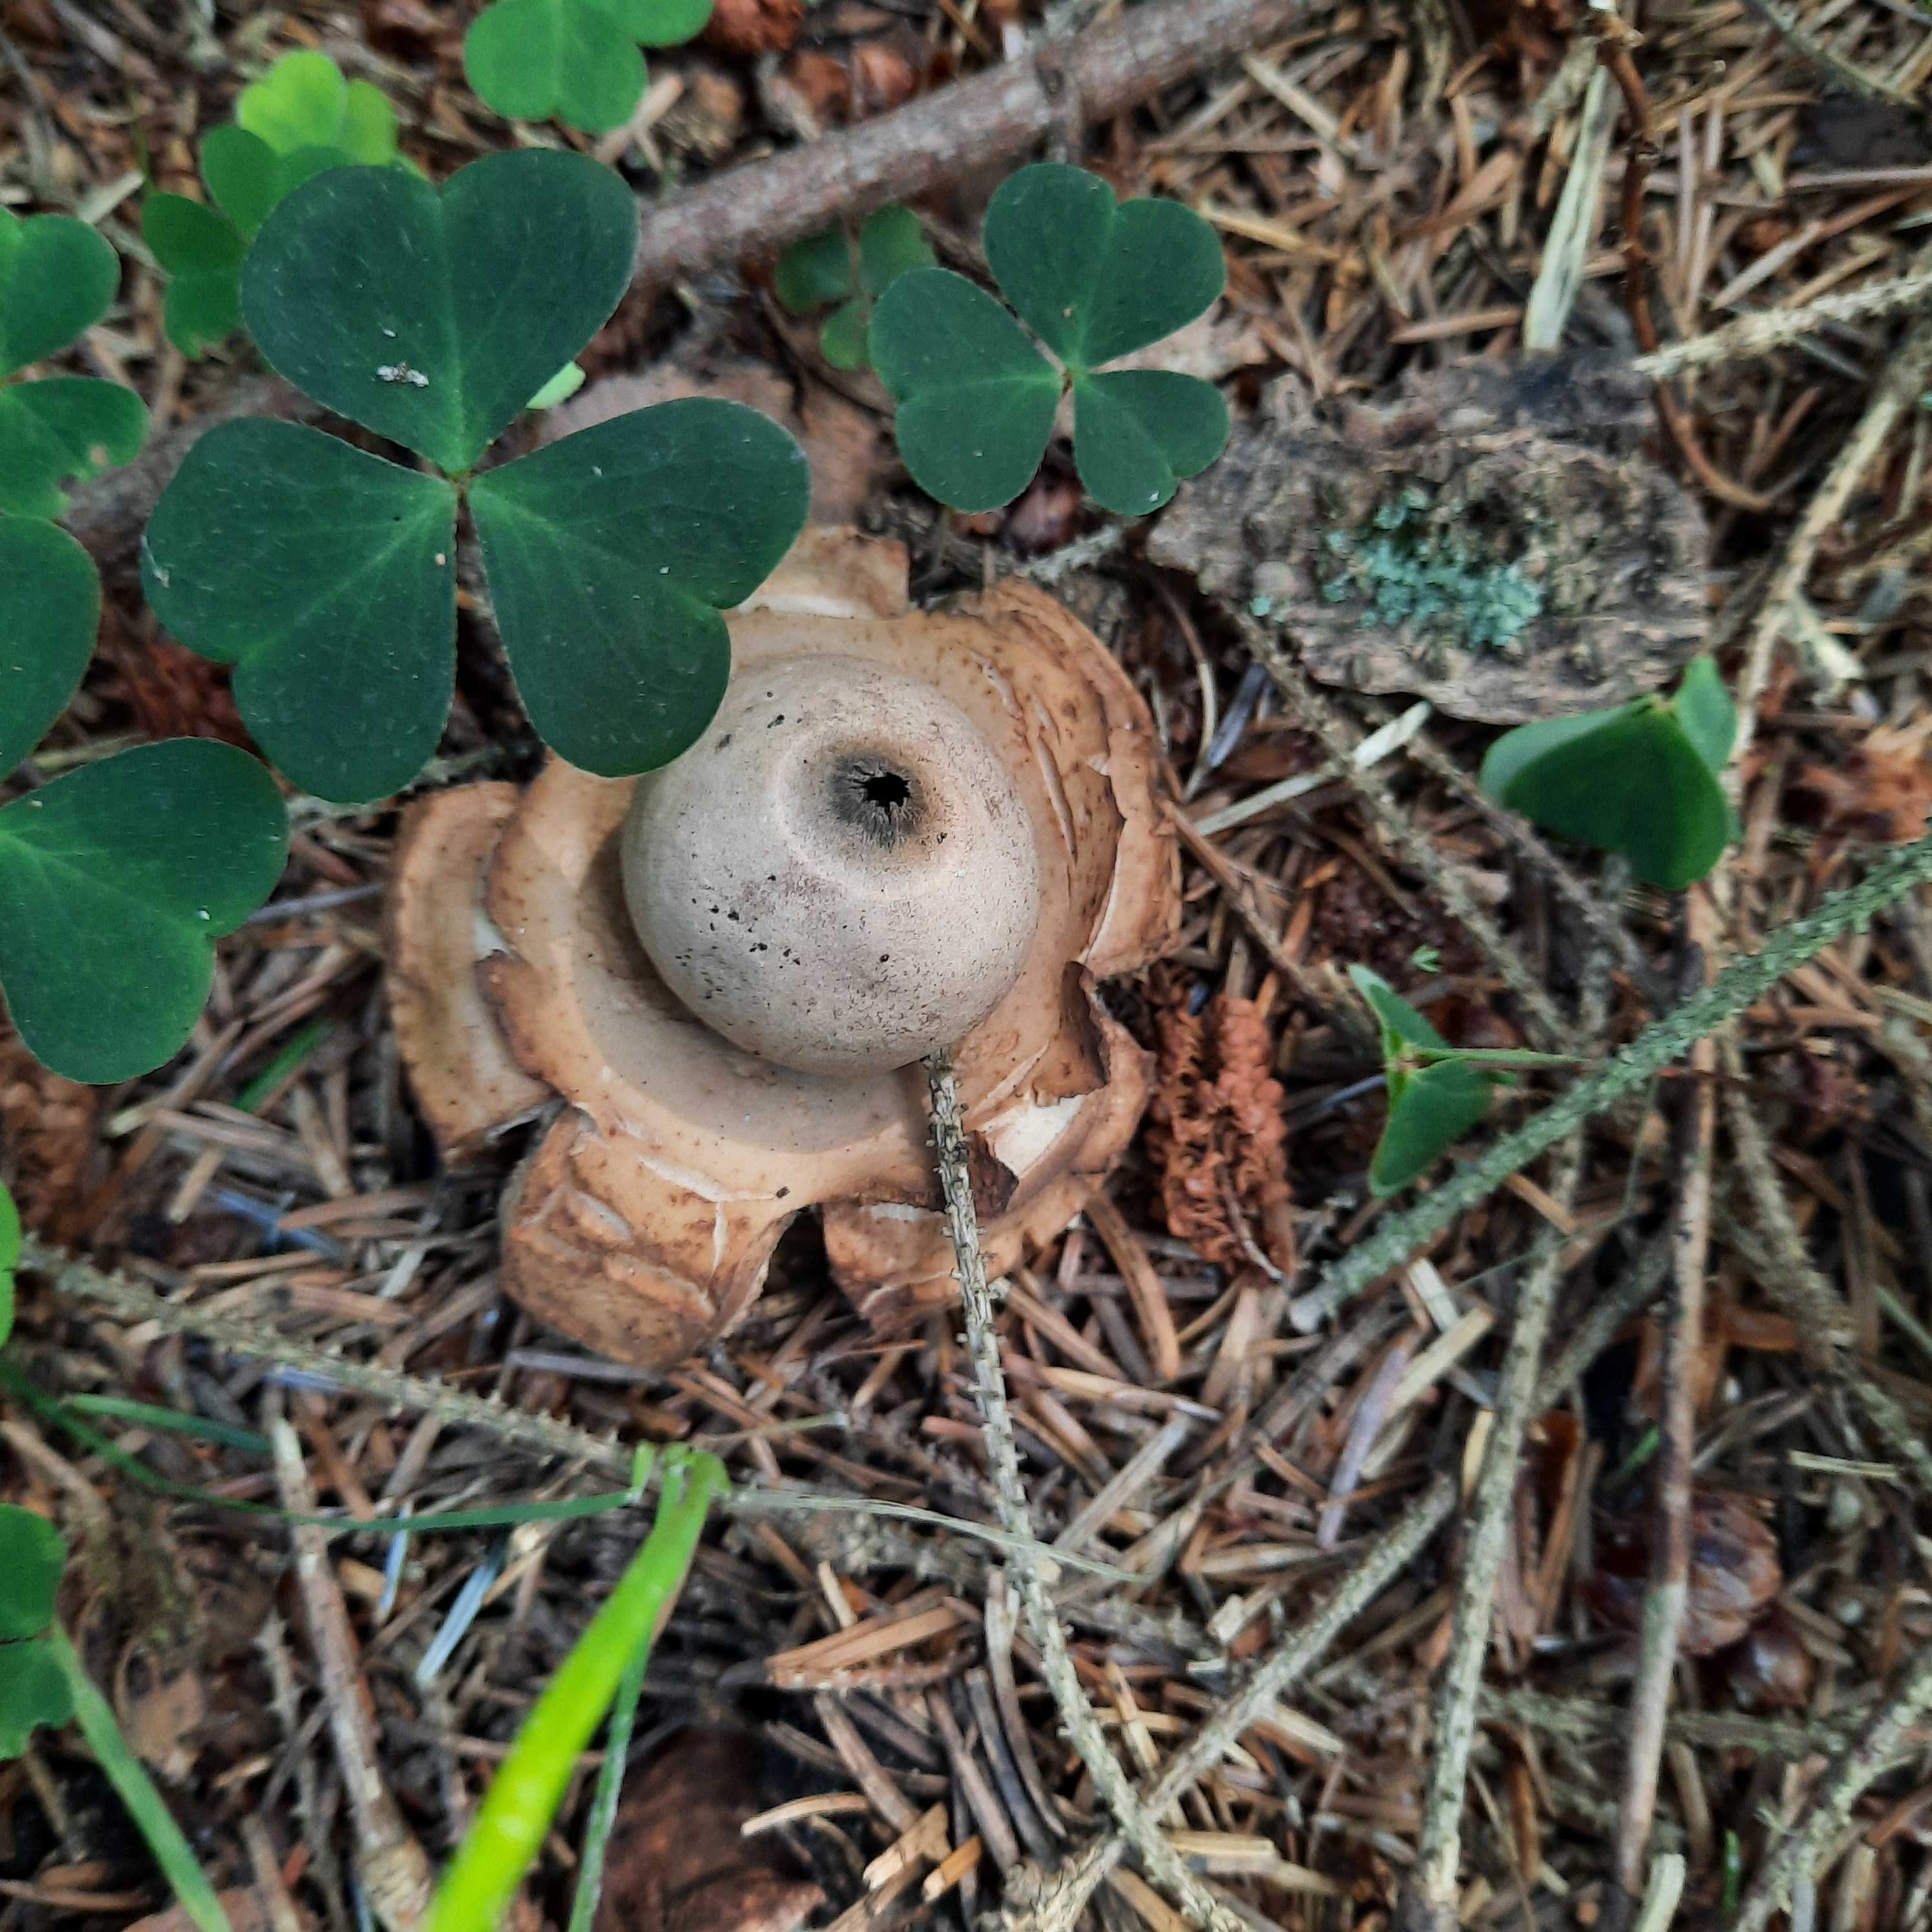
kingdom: Fungi
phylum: Basidiomycota
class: Agaricomycetes
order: Geastrales
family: Geastraceae
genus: Geastrum
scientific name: Geastrum michelianum
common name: kødet stjernebold
